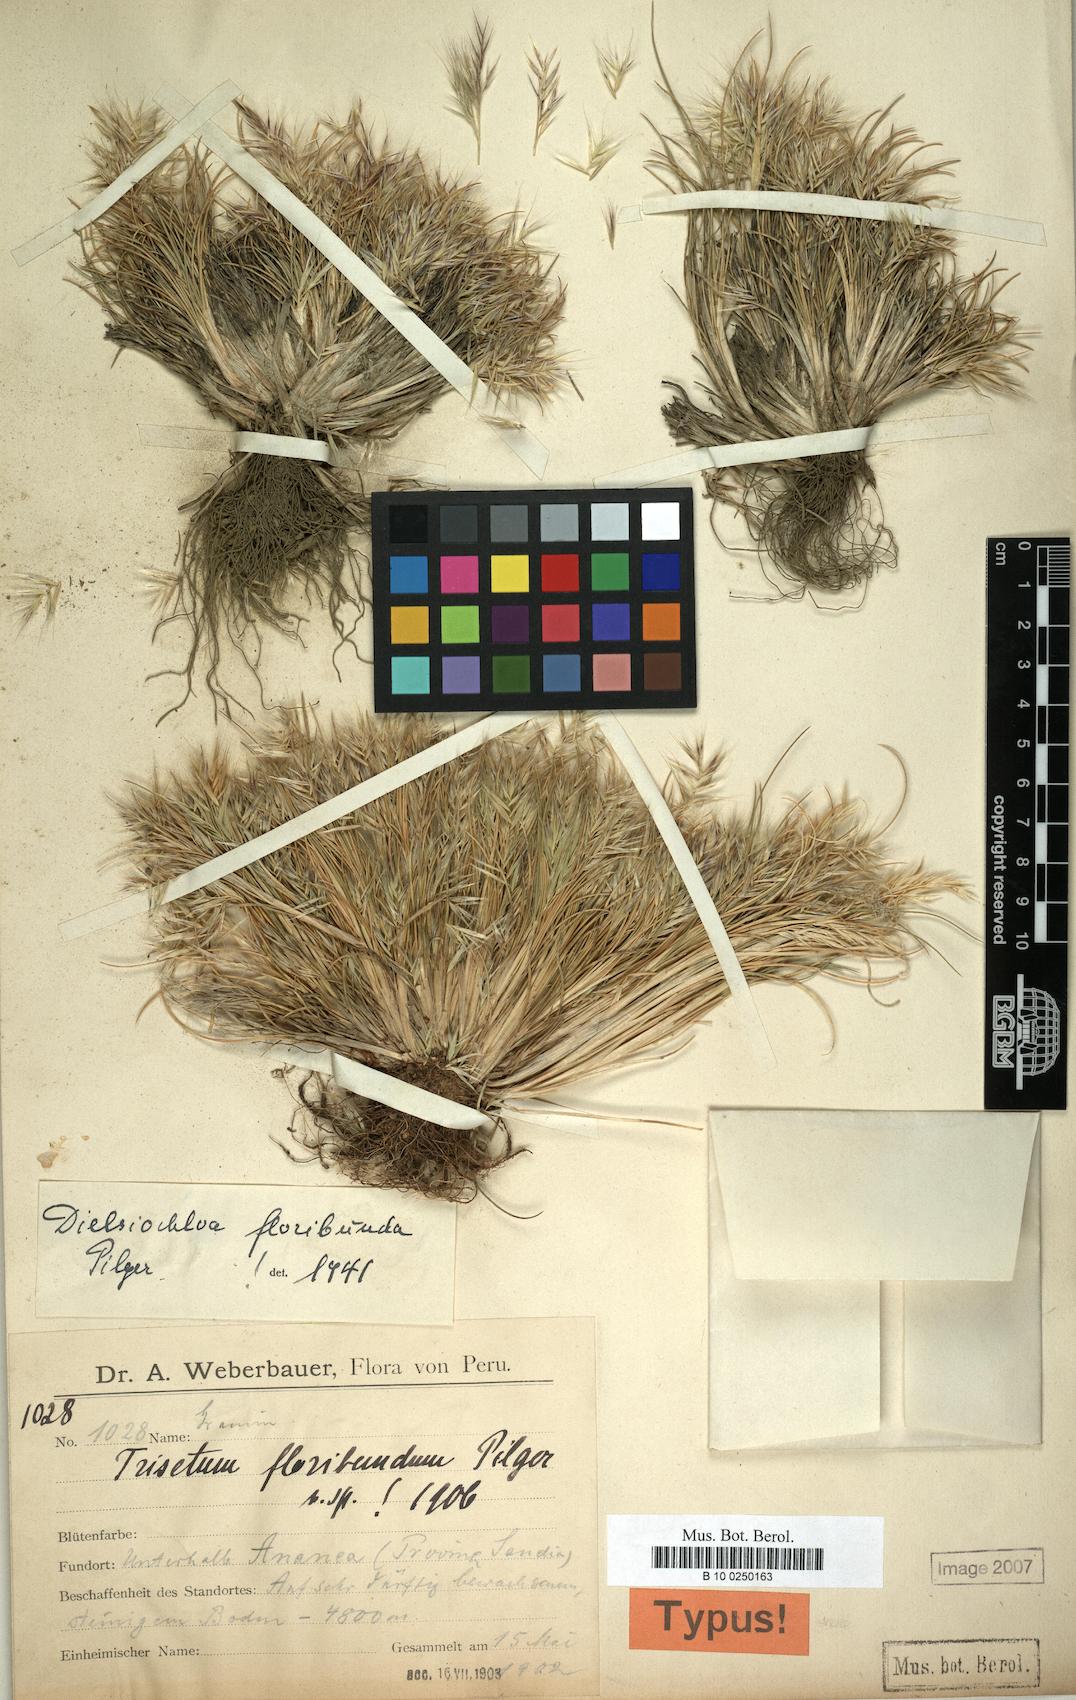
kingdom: Plantae
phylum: Tracheophyta
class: Liliopsida
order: Poales
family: Poaceae
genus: Festuca
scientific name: Festuca floribunda
